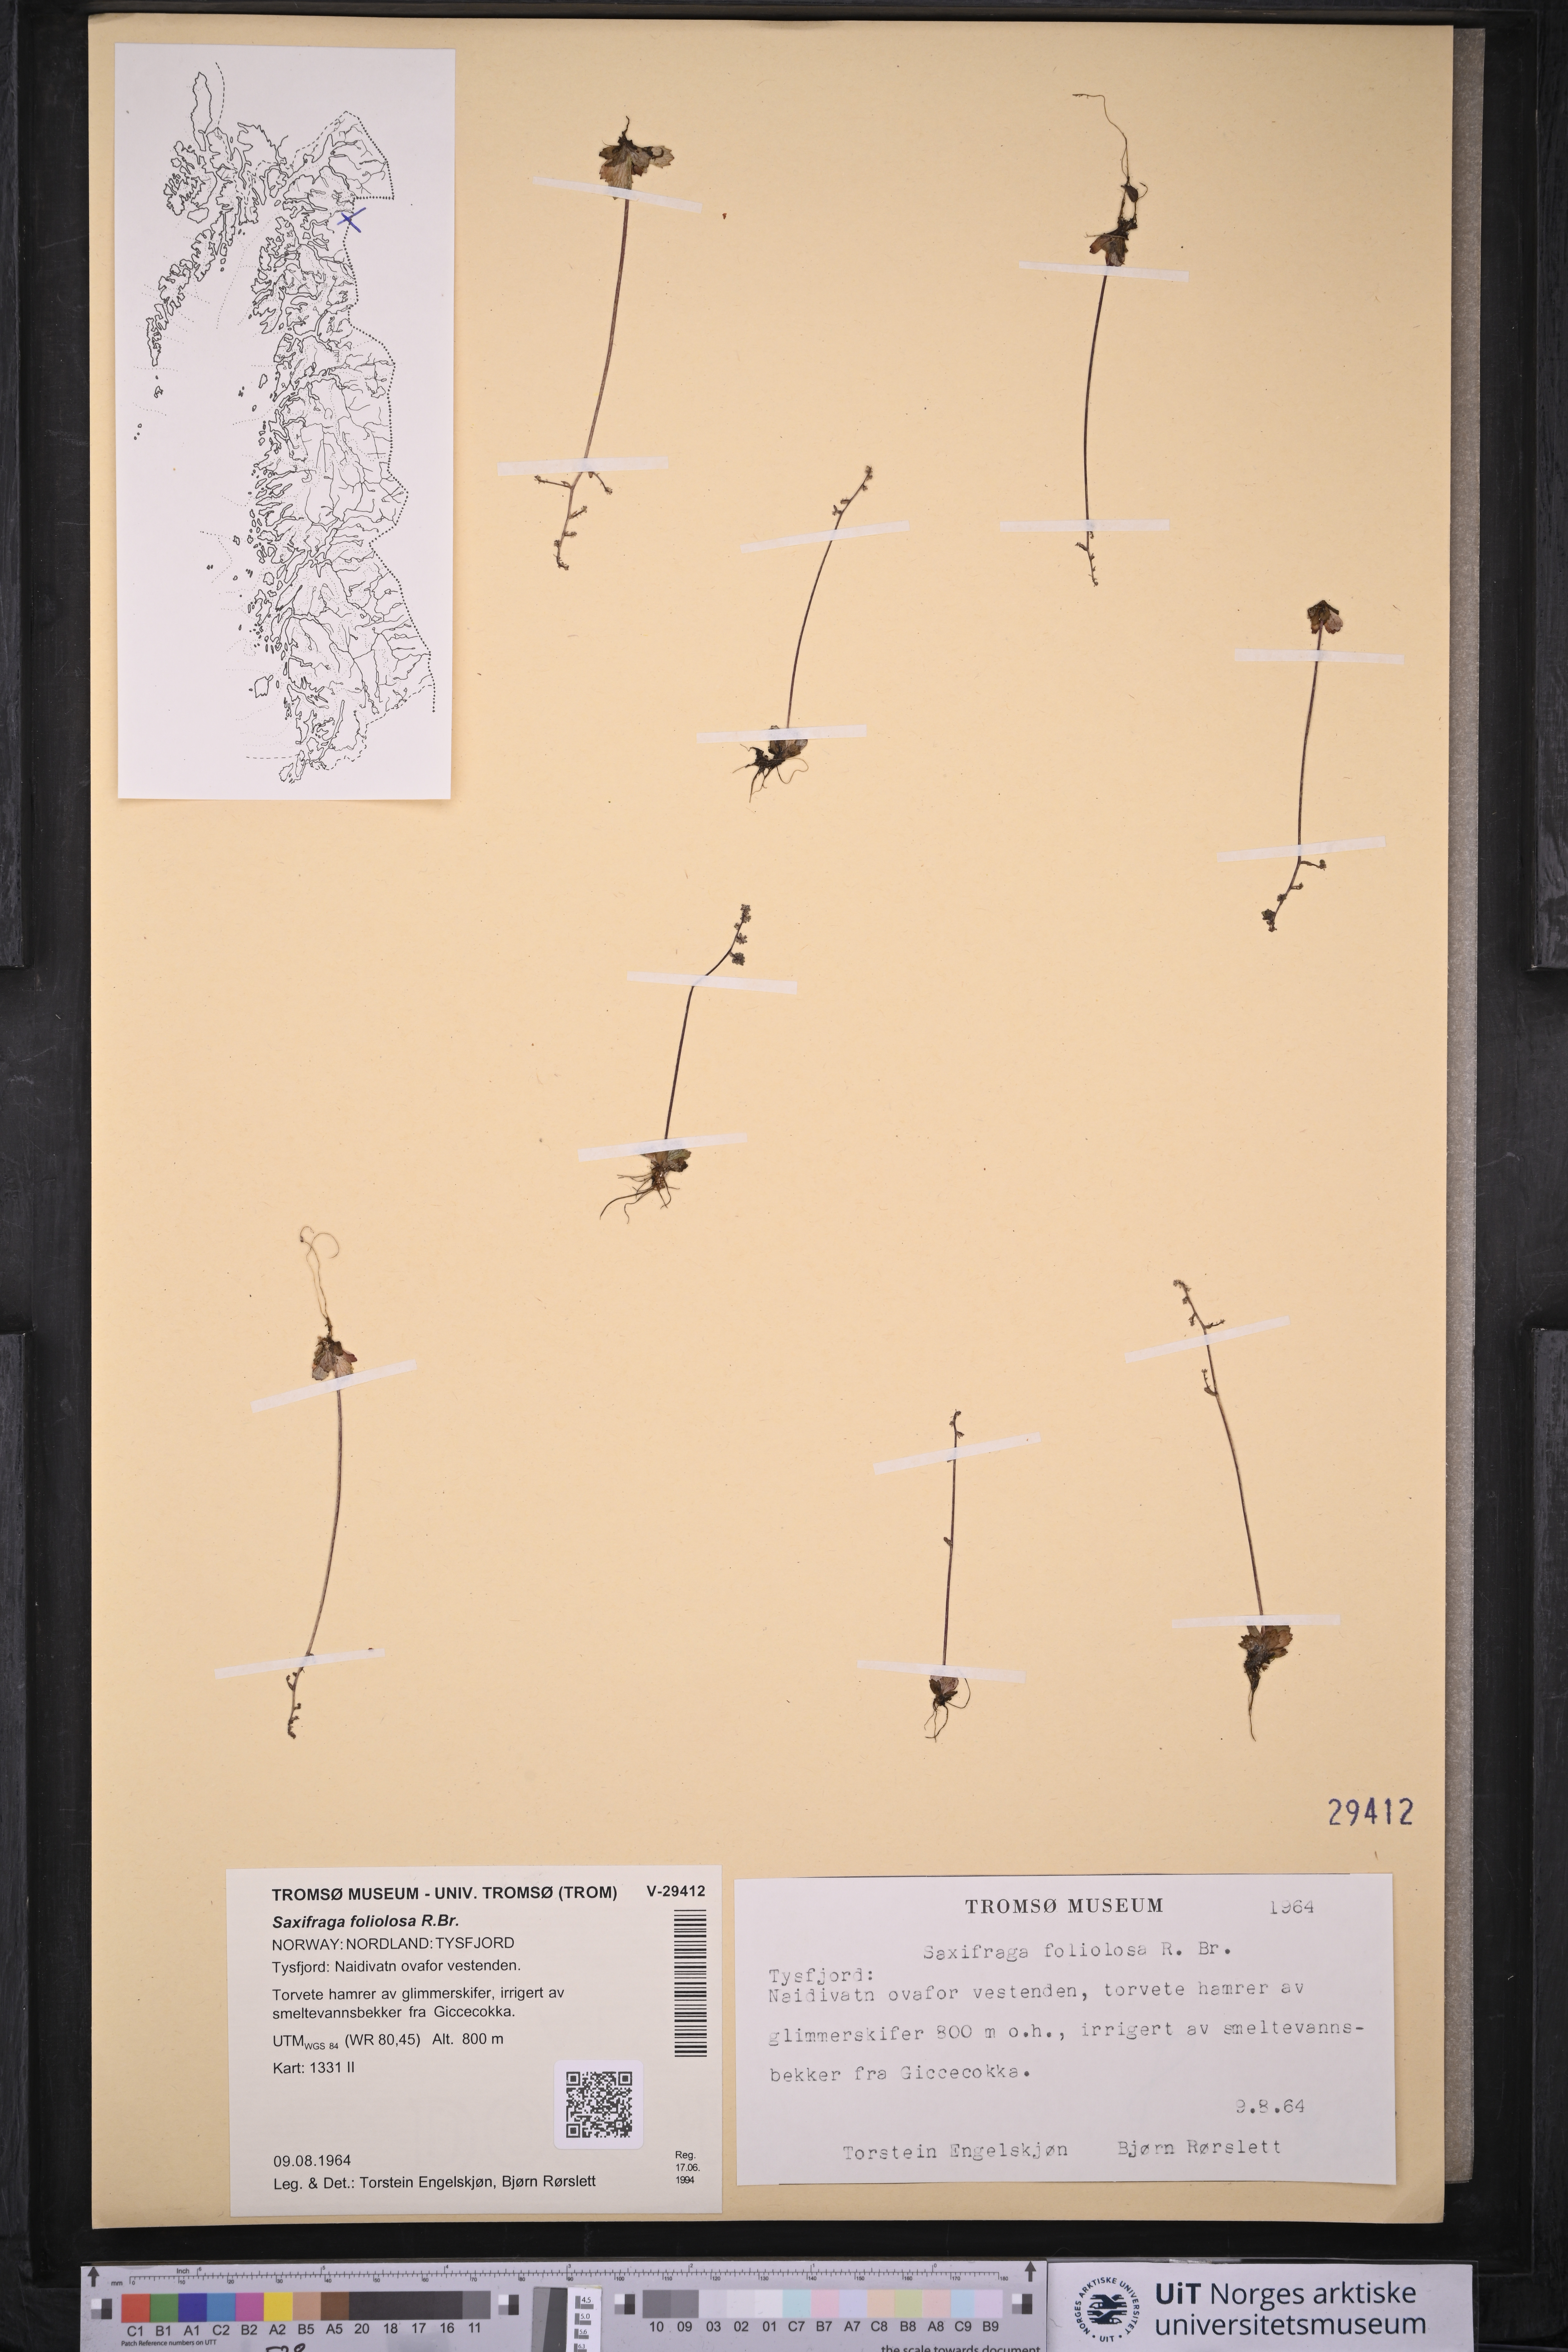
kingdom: Plantae
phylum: Tracheophyta
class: Magnoliopsida
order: Saxifragales
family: Saxifragaceae
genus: Micranthes
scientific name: Micranthes foliolosa
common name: Leafystem saxifrage
